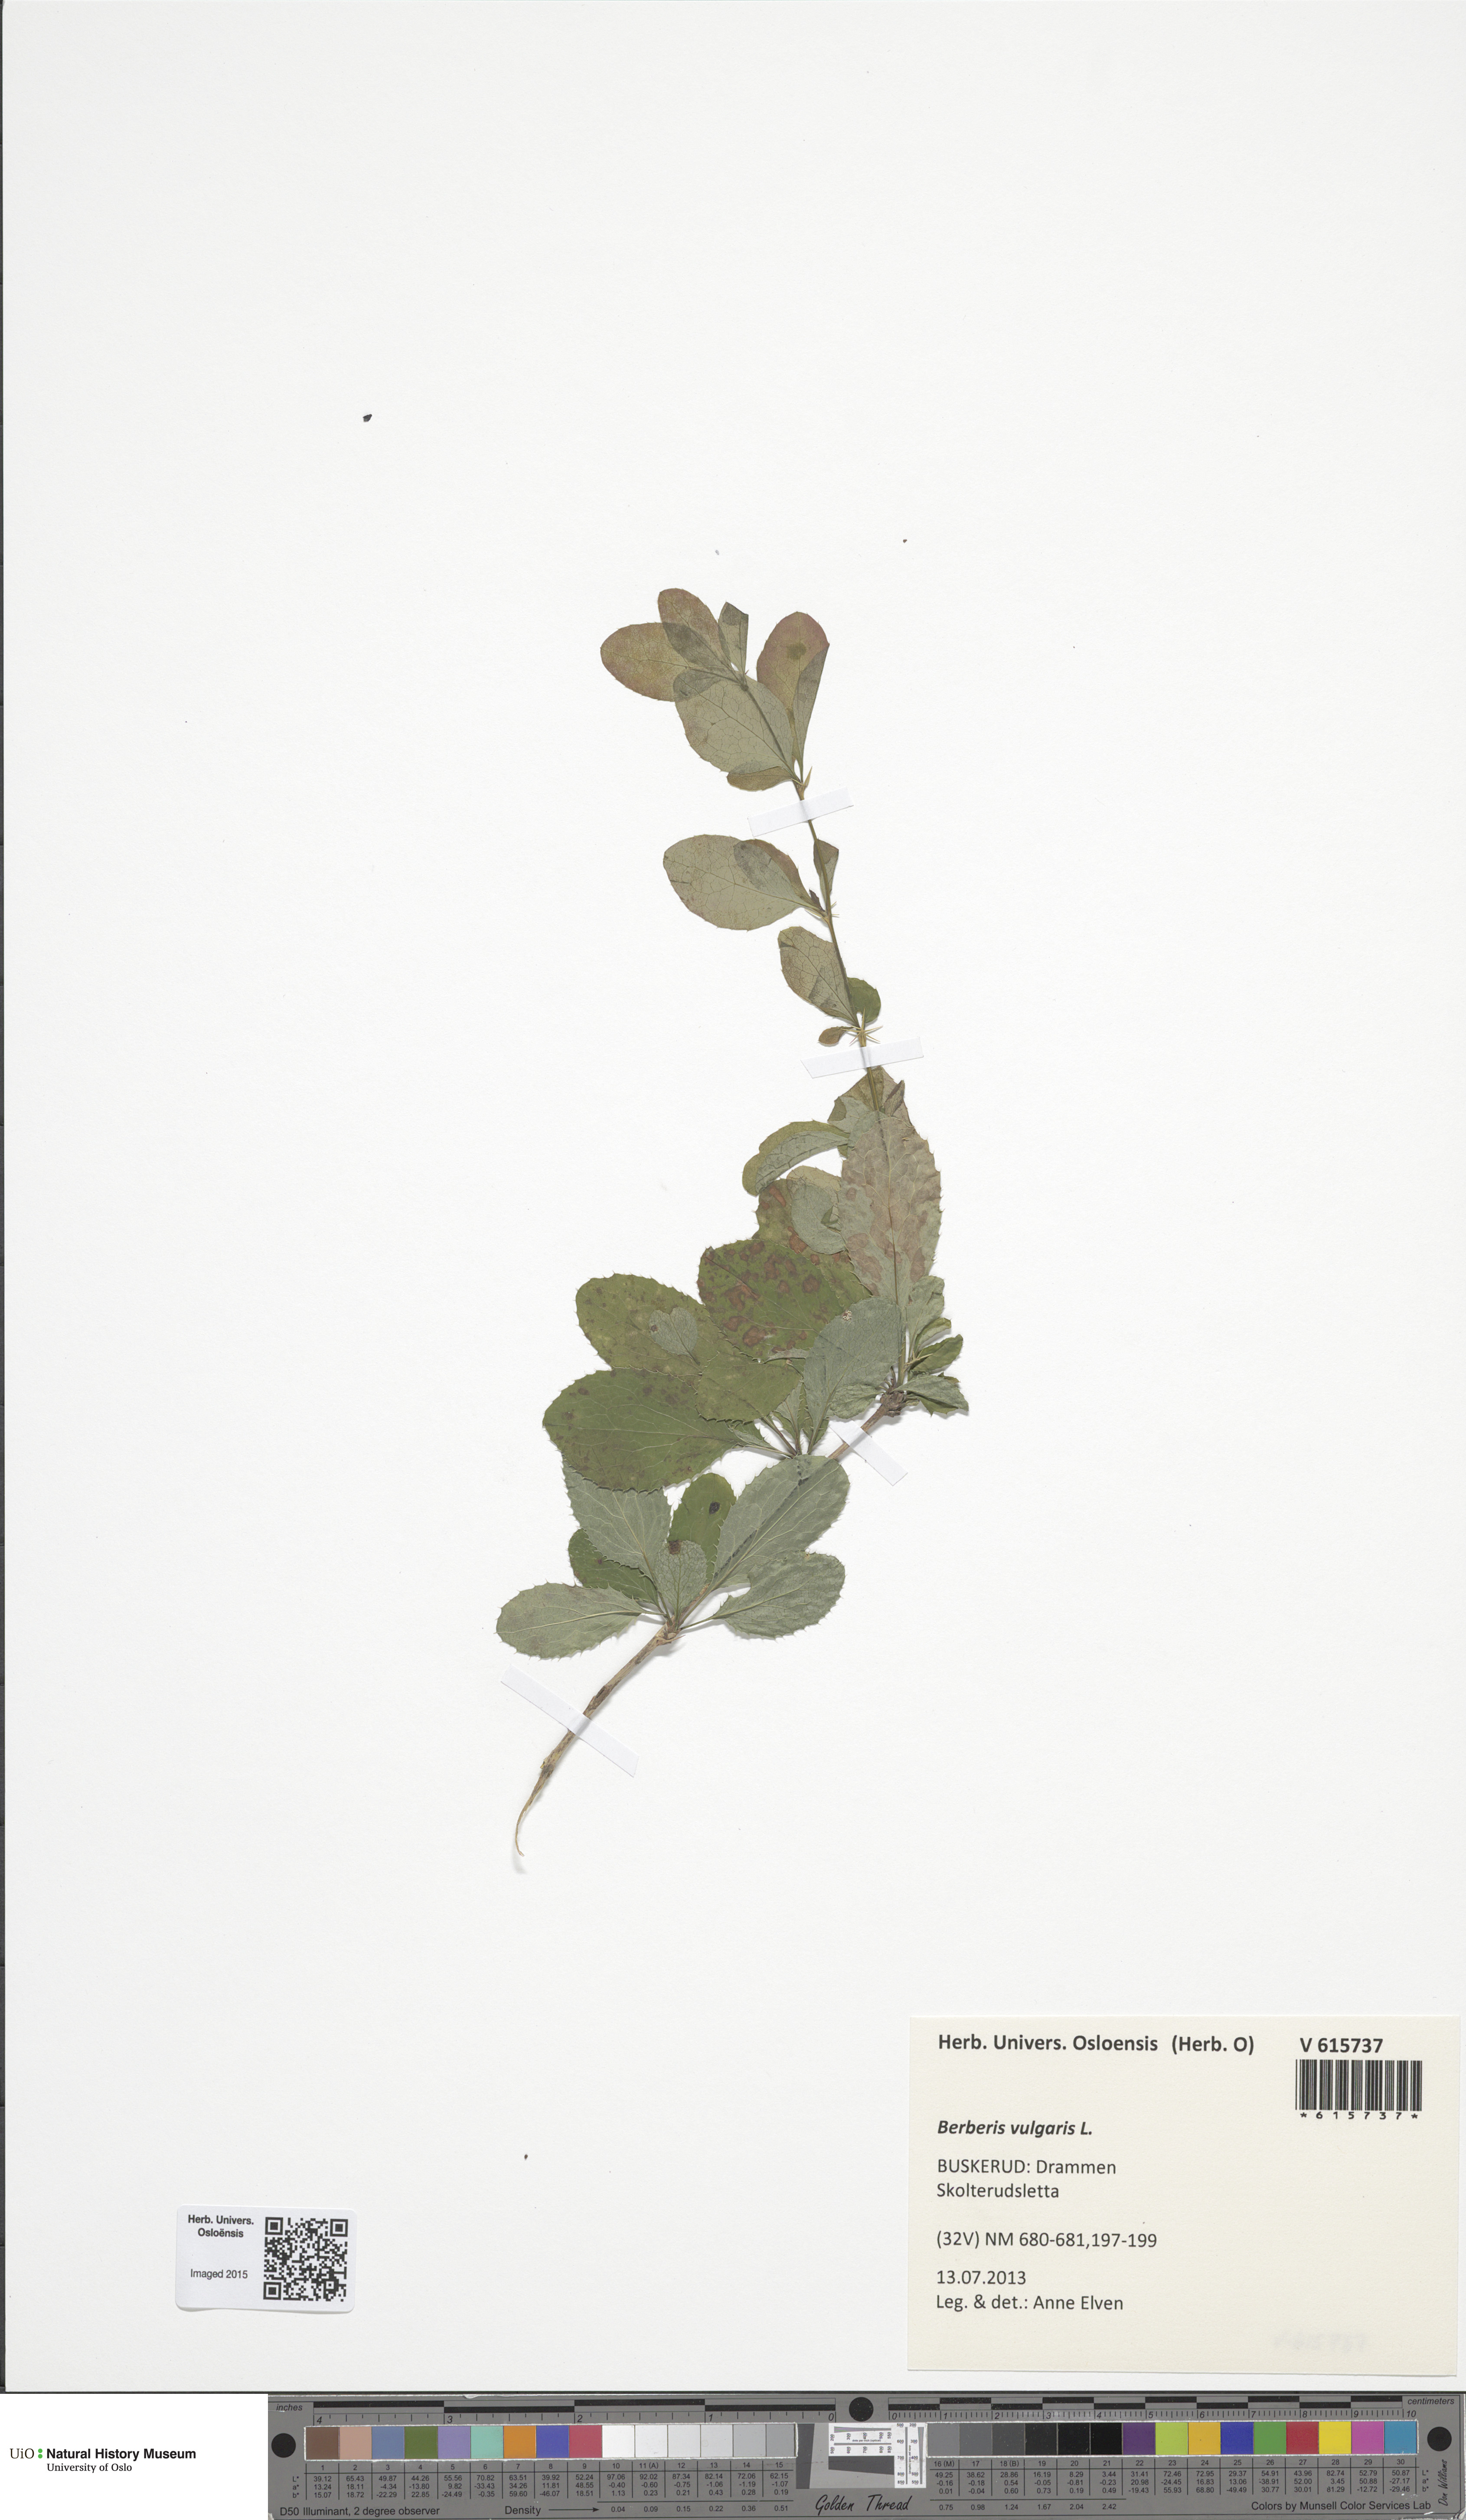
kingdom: Plantae
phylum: Tracheophyta
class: Magnoliopsida
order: Ranunculales
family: Berberidaceae
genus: Berberis
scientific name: Berberis vulgaris
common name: Barberry
